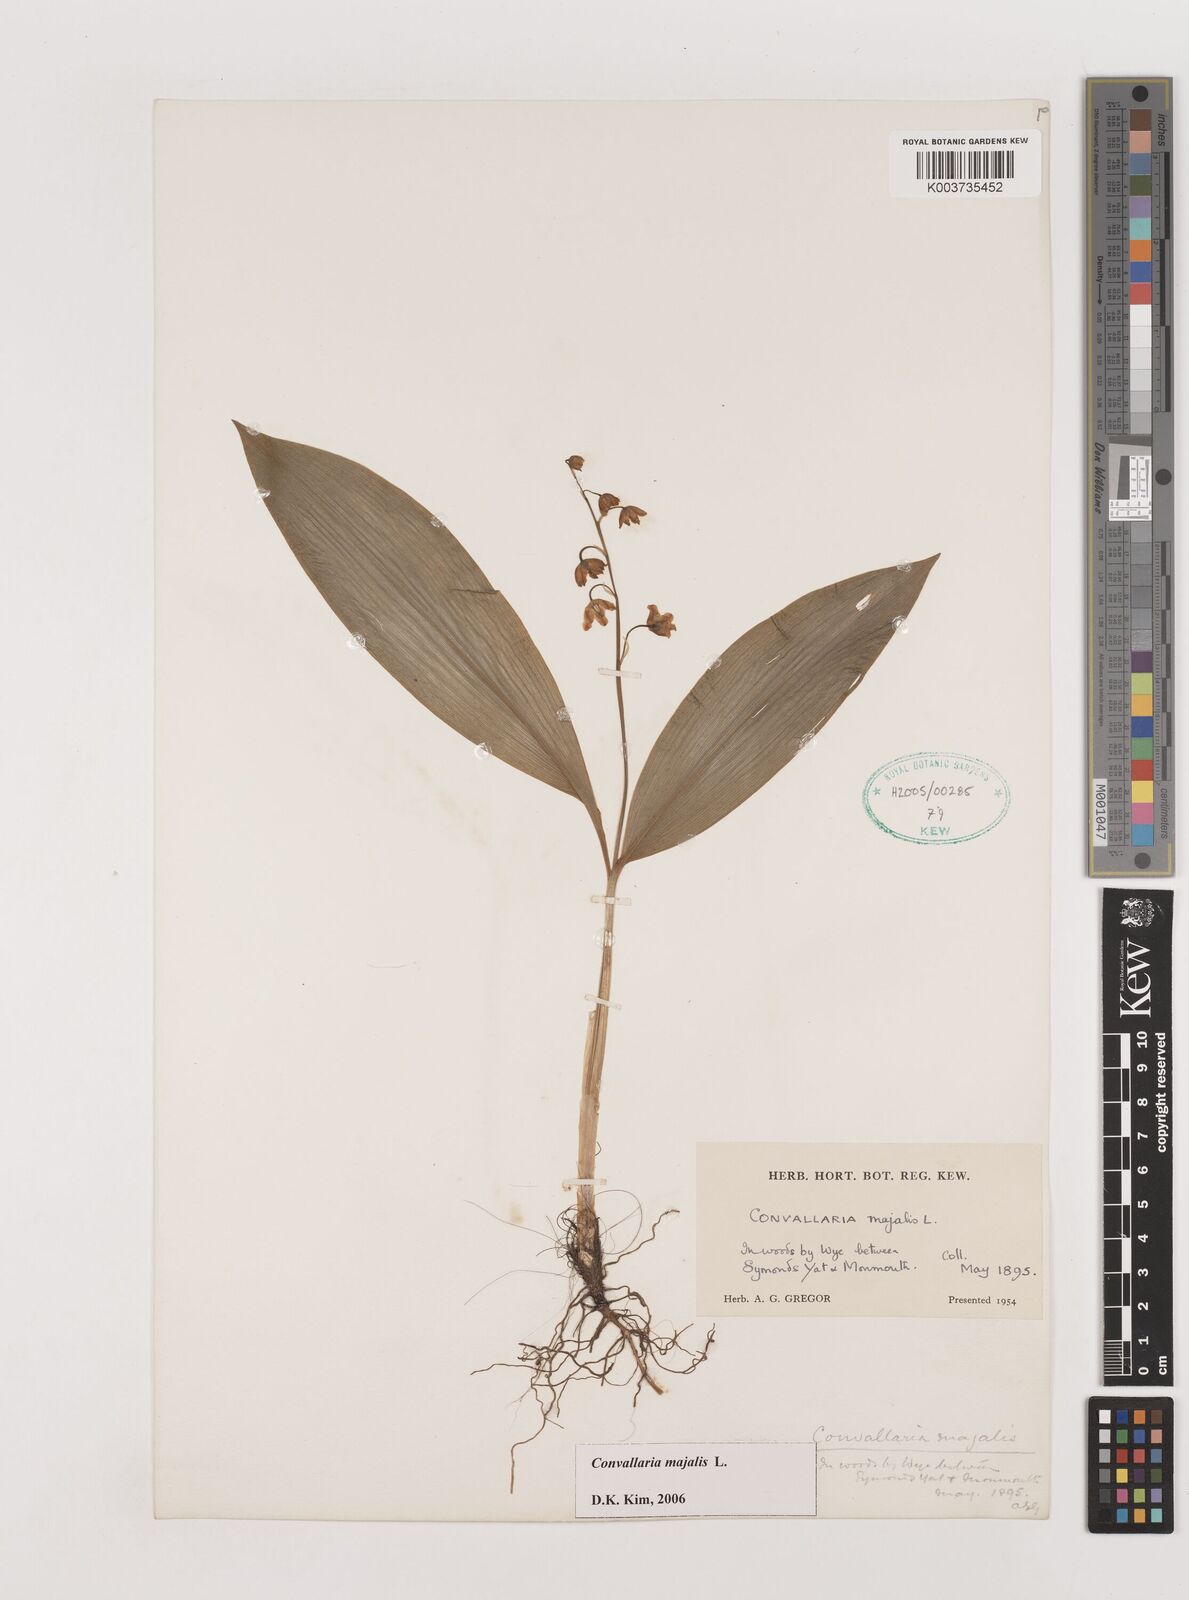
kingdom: Plantae
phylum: Tracheophyta
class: Liliopsida
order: Asparagales
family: Asparagaceae
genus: Convallaria
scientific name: Convallaria majalis
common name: Lily-of-the-valley
